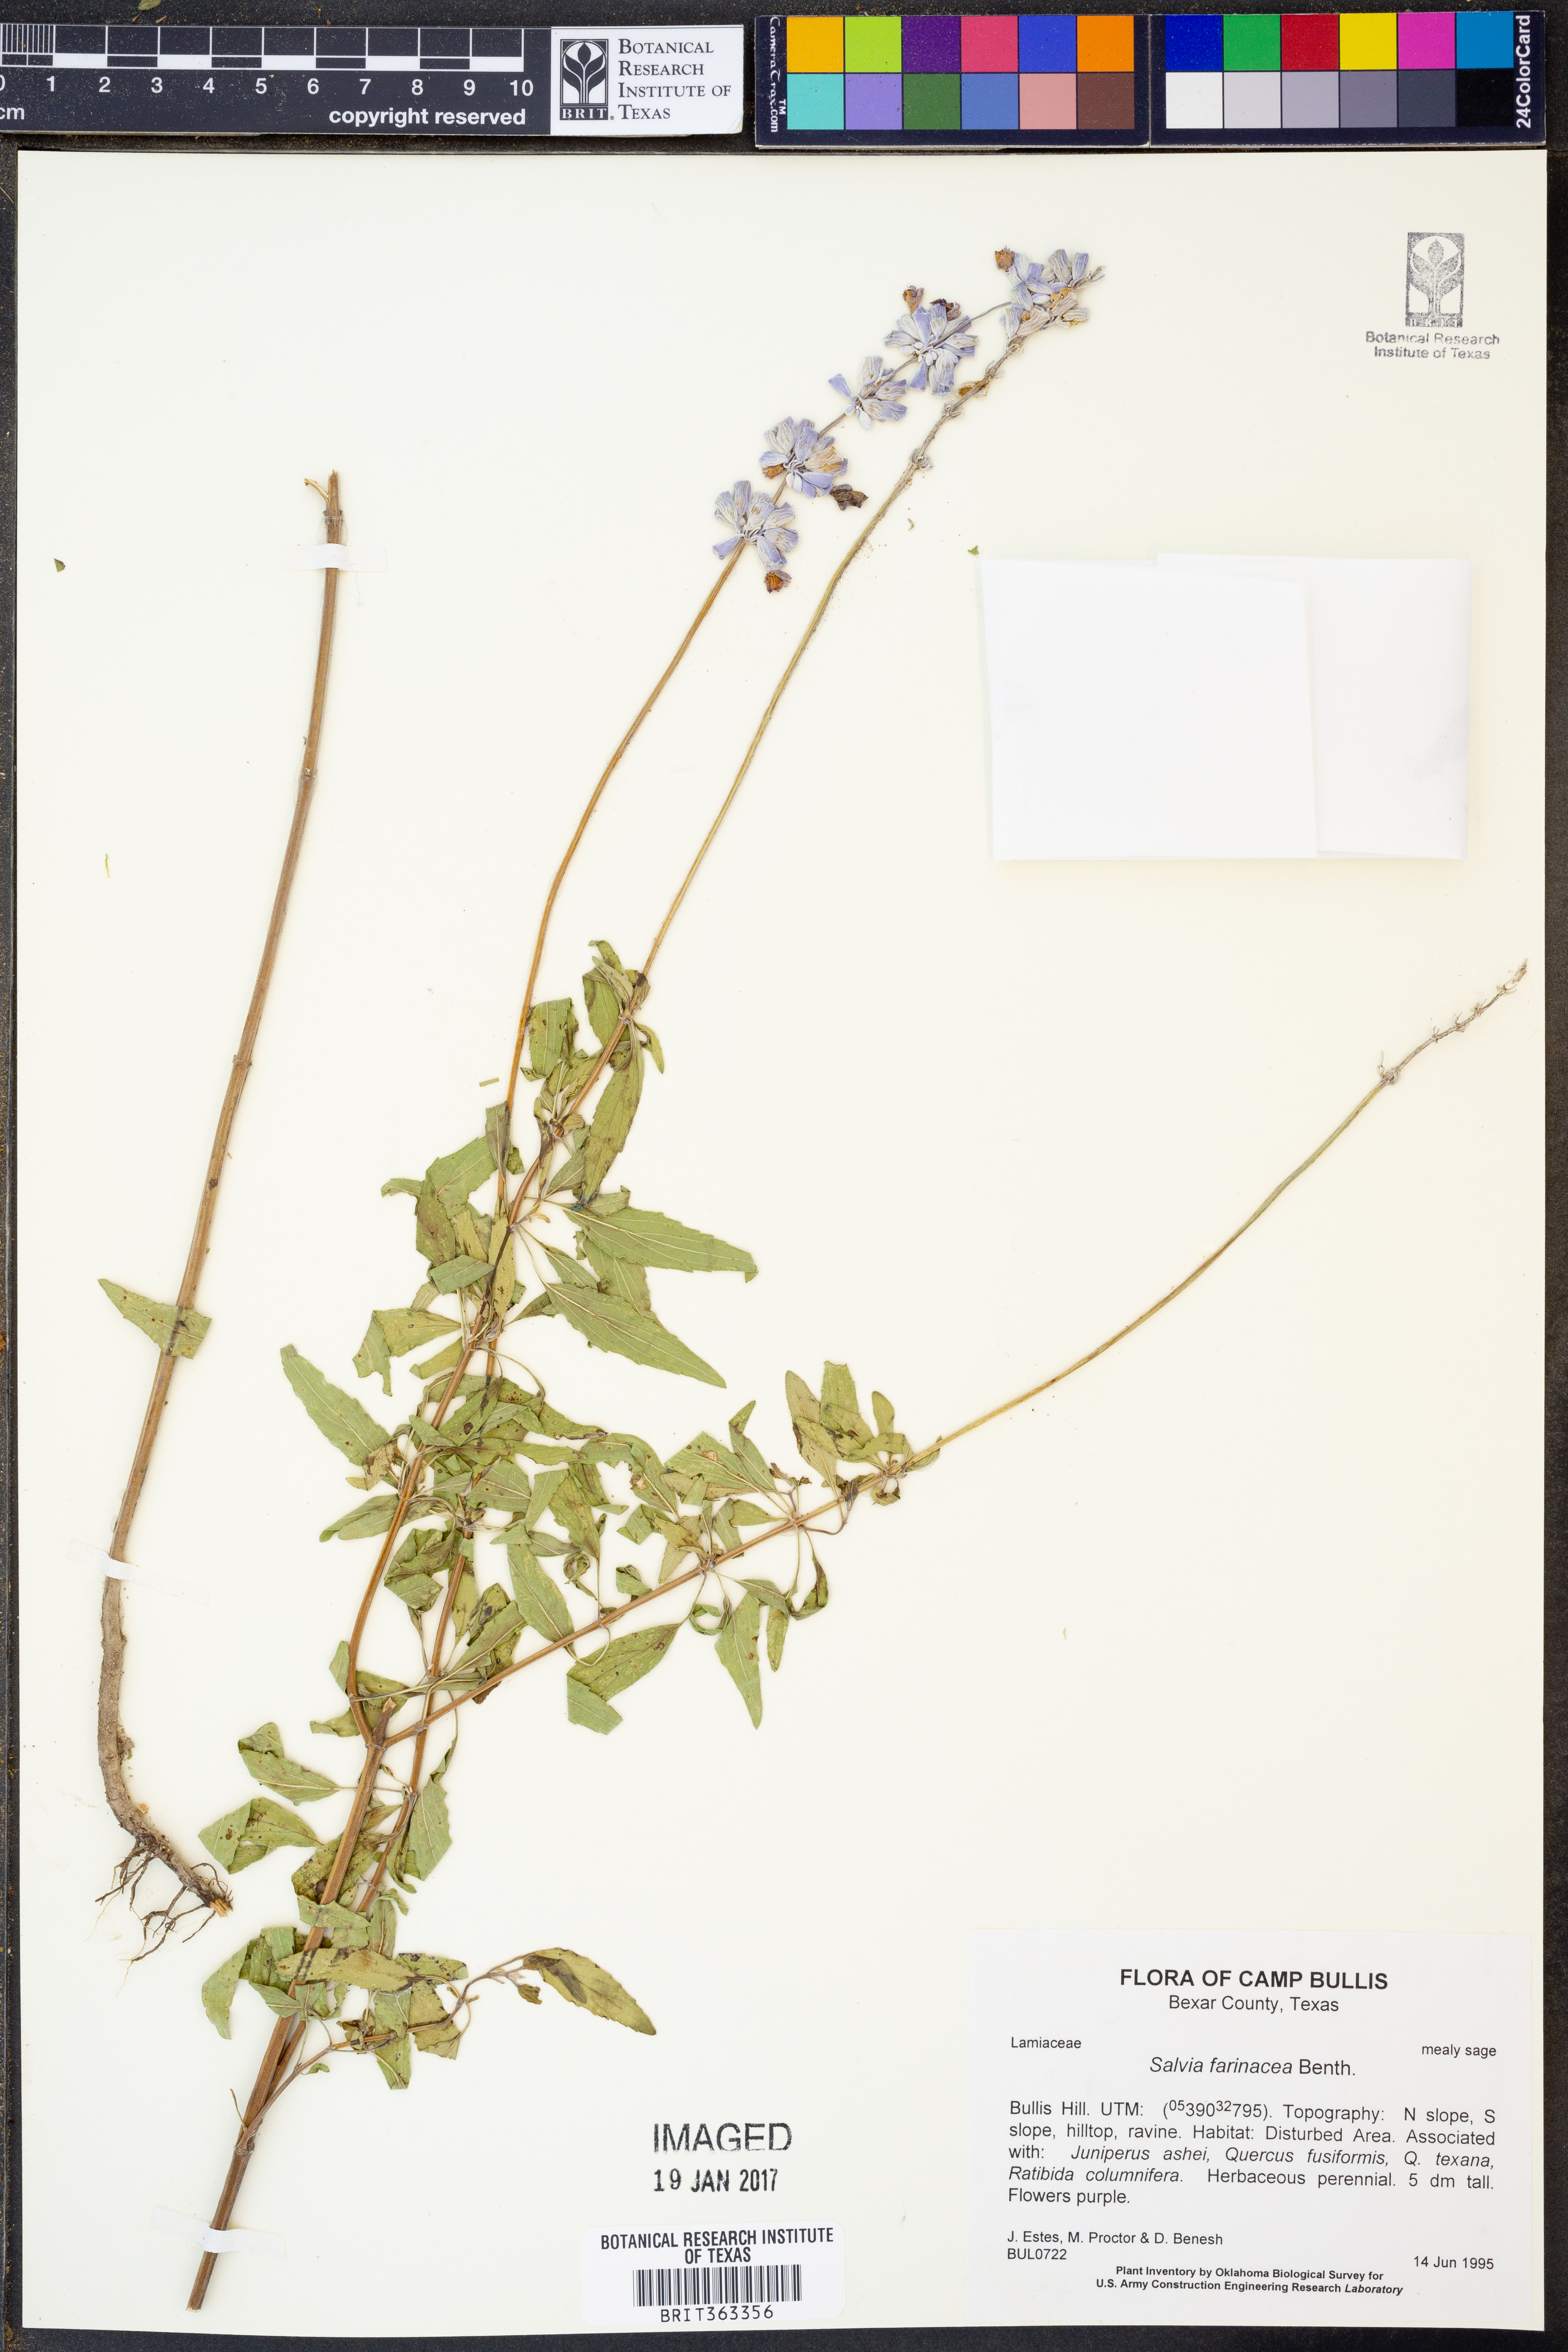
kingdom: Plantae
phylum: Tracheophyta
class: Magnoliopsida
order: Lamiales
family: Lamiaceae
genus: Salvia
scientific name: Salvia farinacea
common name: Mealy sage
